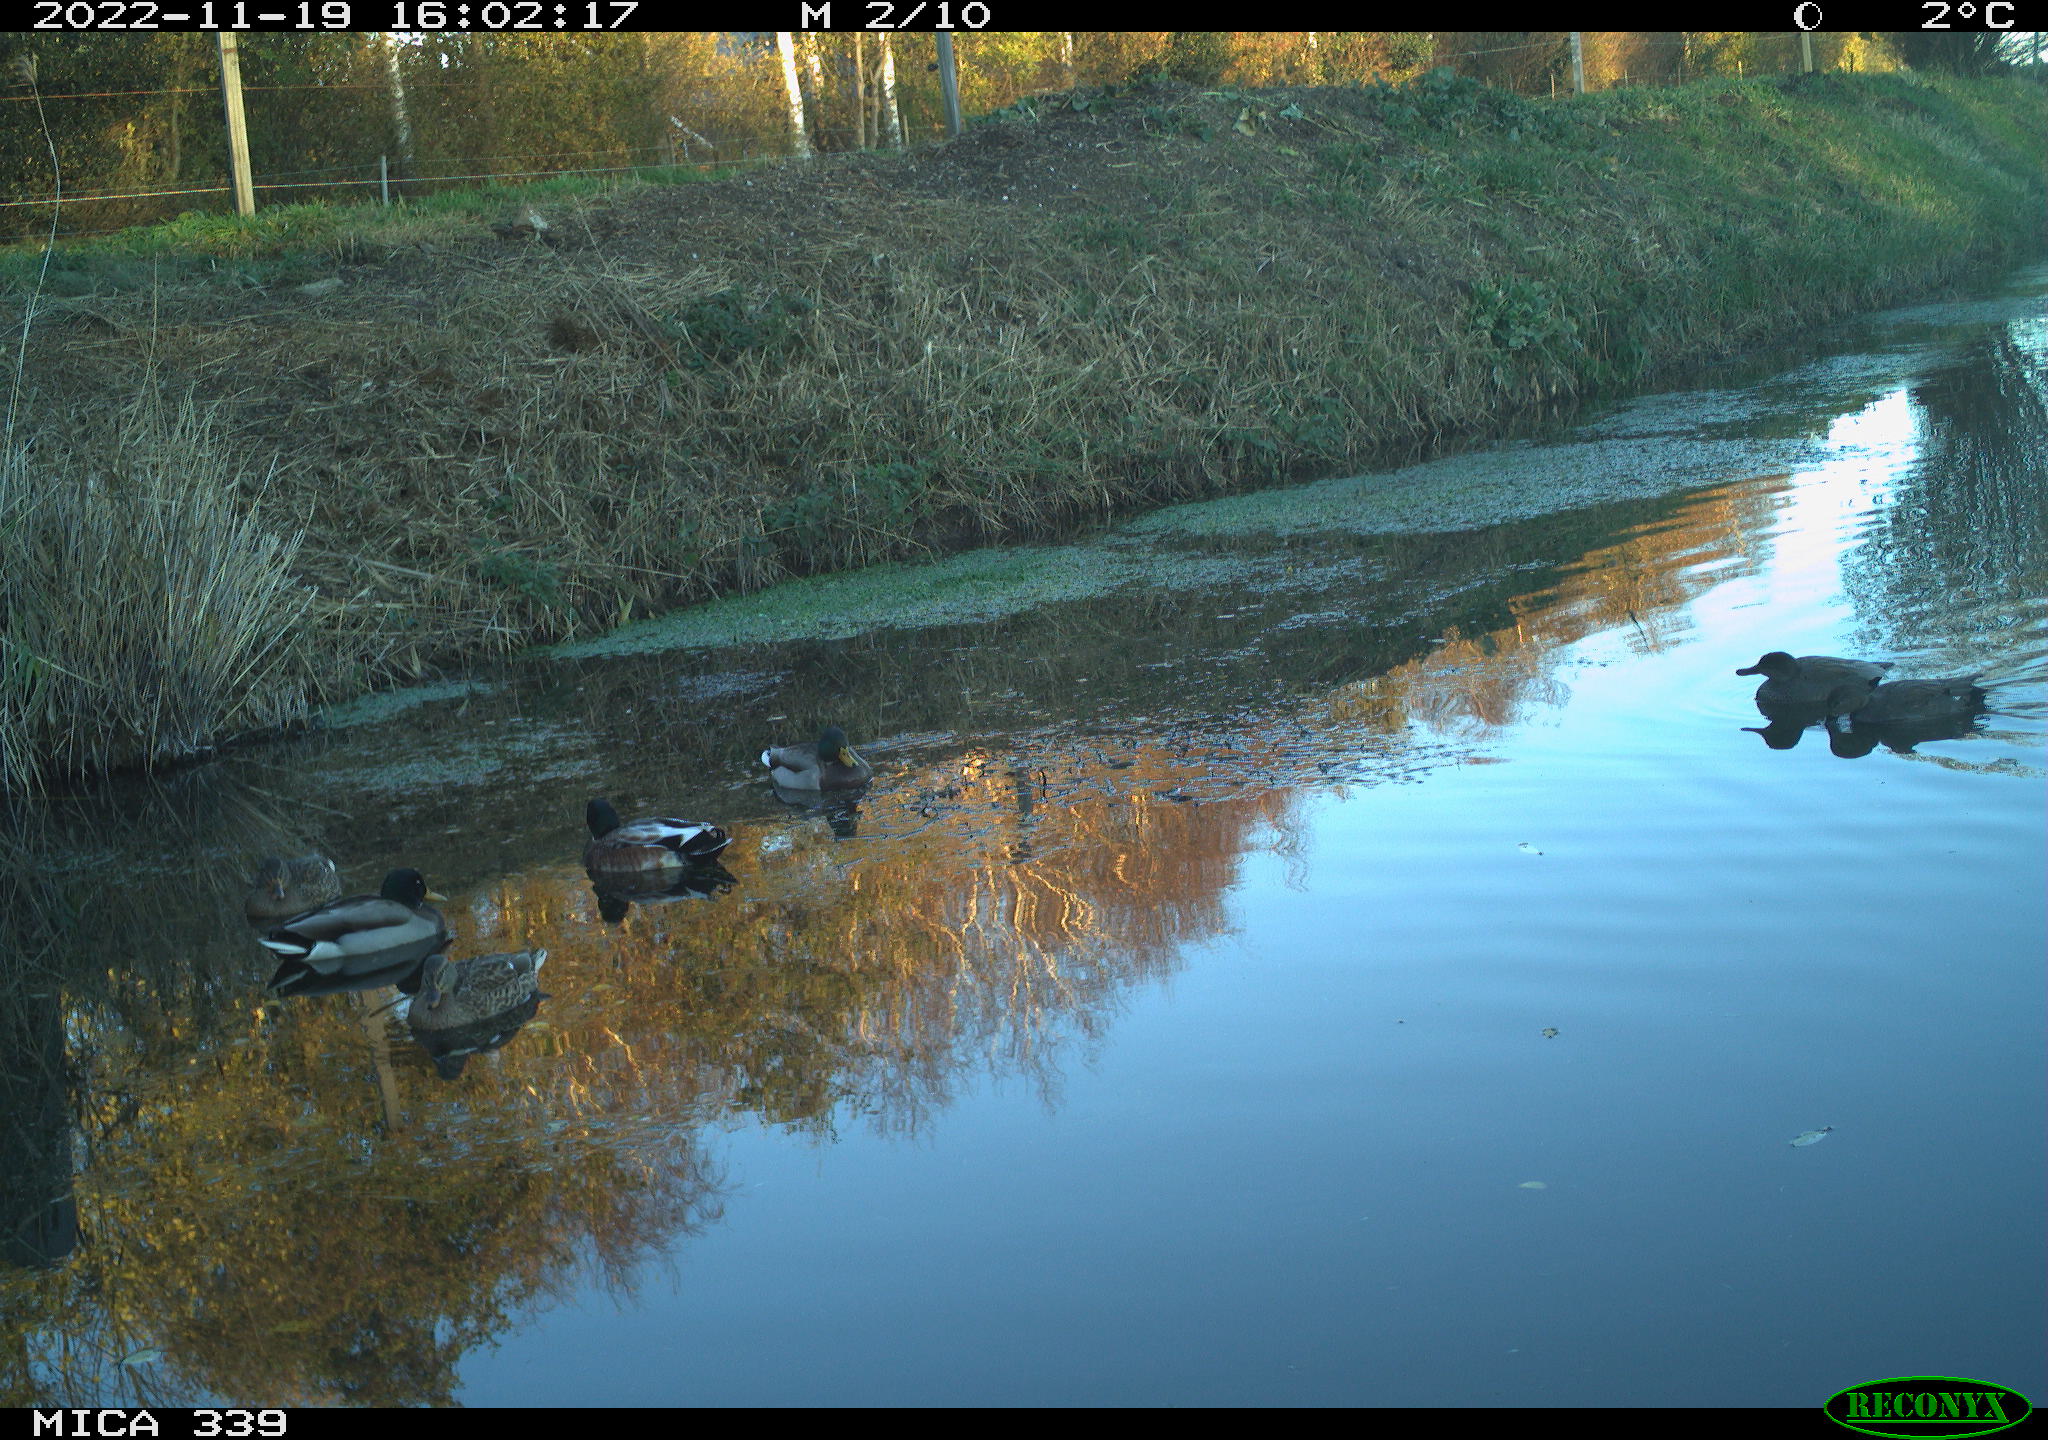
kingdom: Animalia
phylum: Chordata
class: Aves
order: Anseriformes
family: Anatidae
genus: Anas
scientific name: Anas platyrhynchos
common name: Mallard
